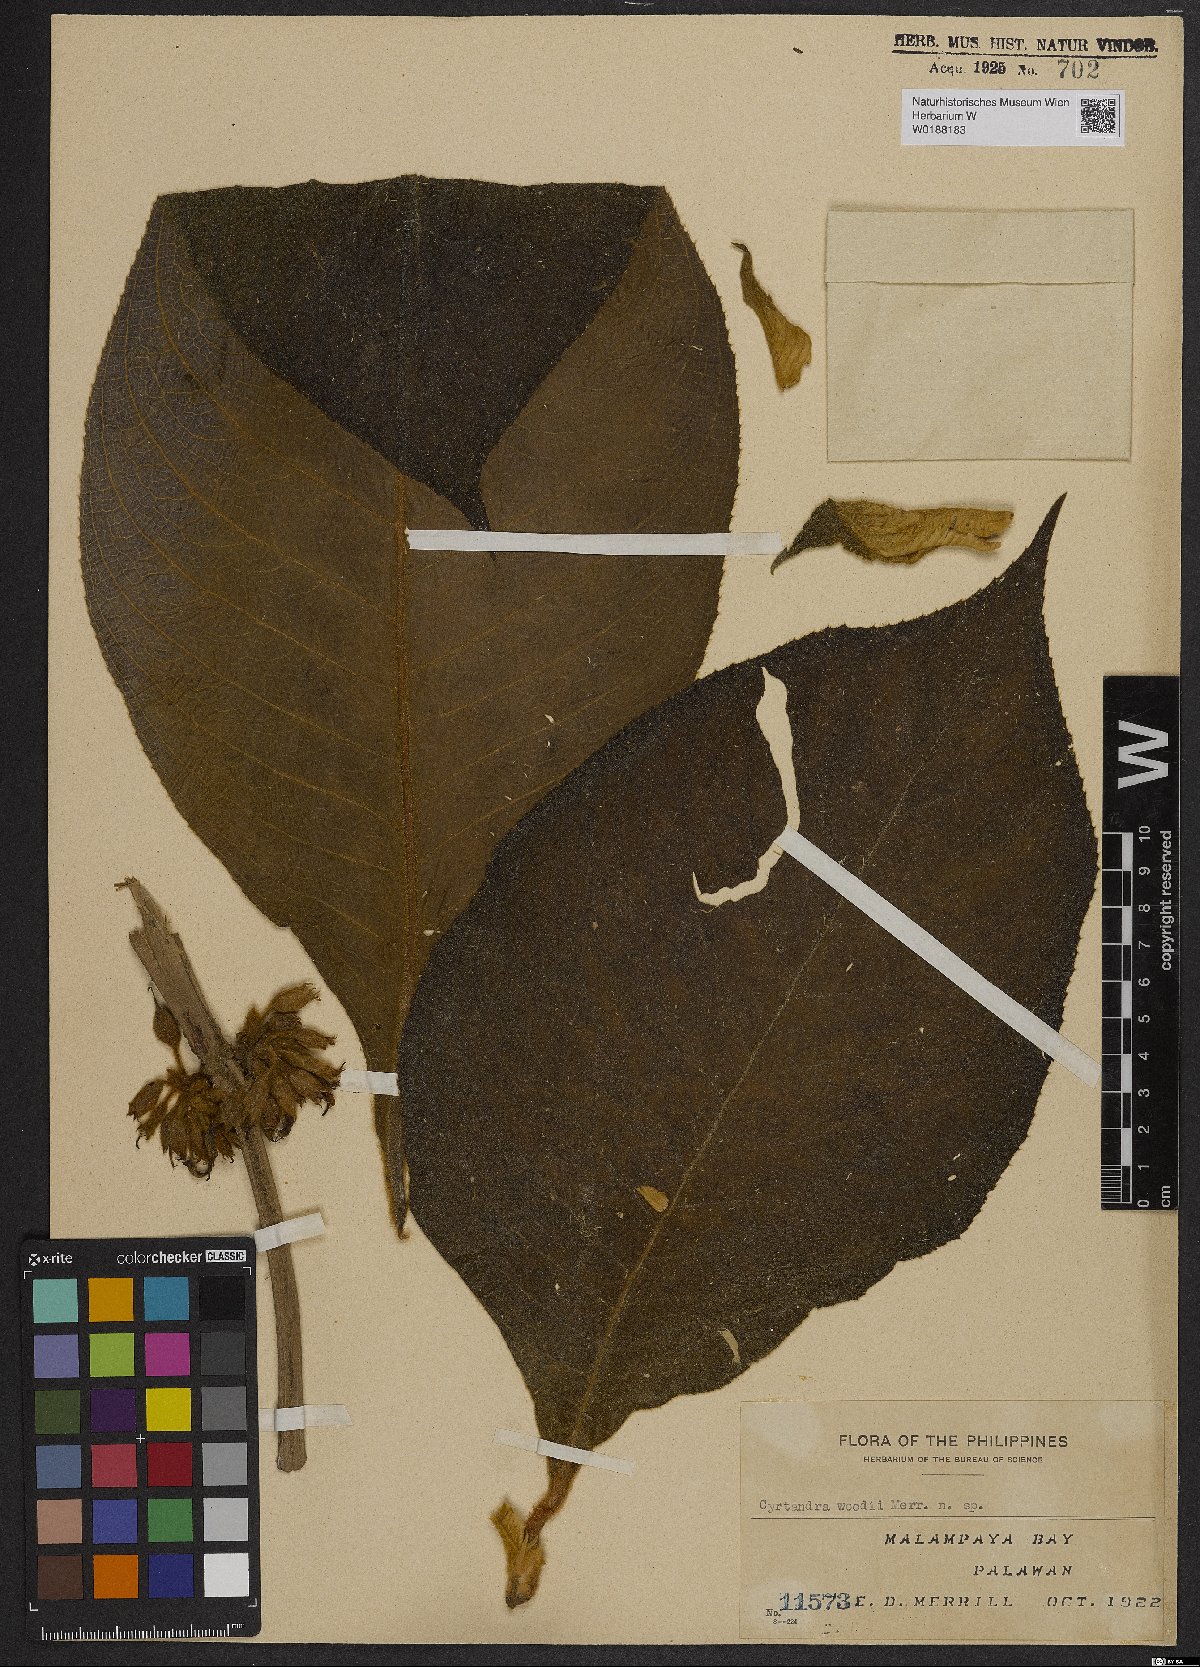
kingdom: Plantae
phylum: Tracheophyta
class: Magnoliopsida
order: Lamiales
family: Gesneriaceae
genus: Cyrtandra
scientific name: Cyrtandra
